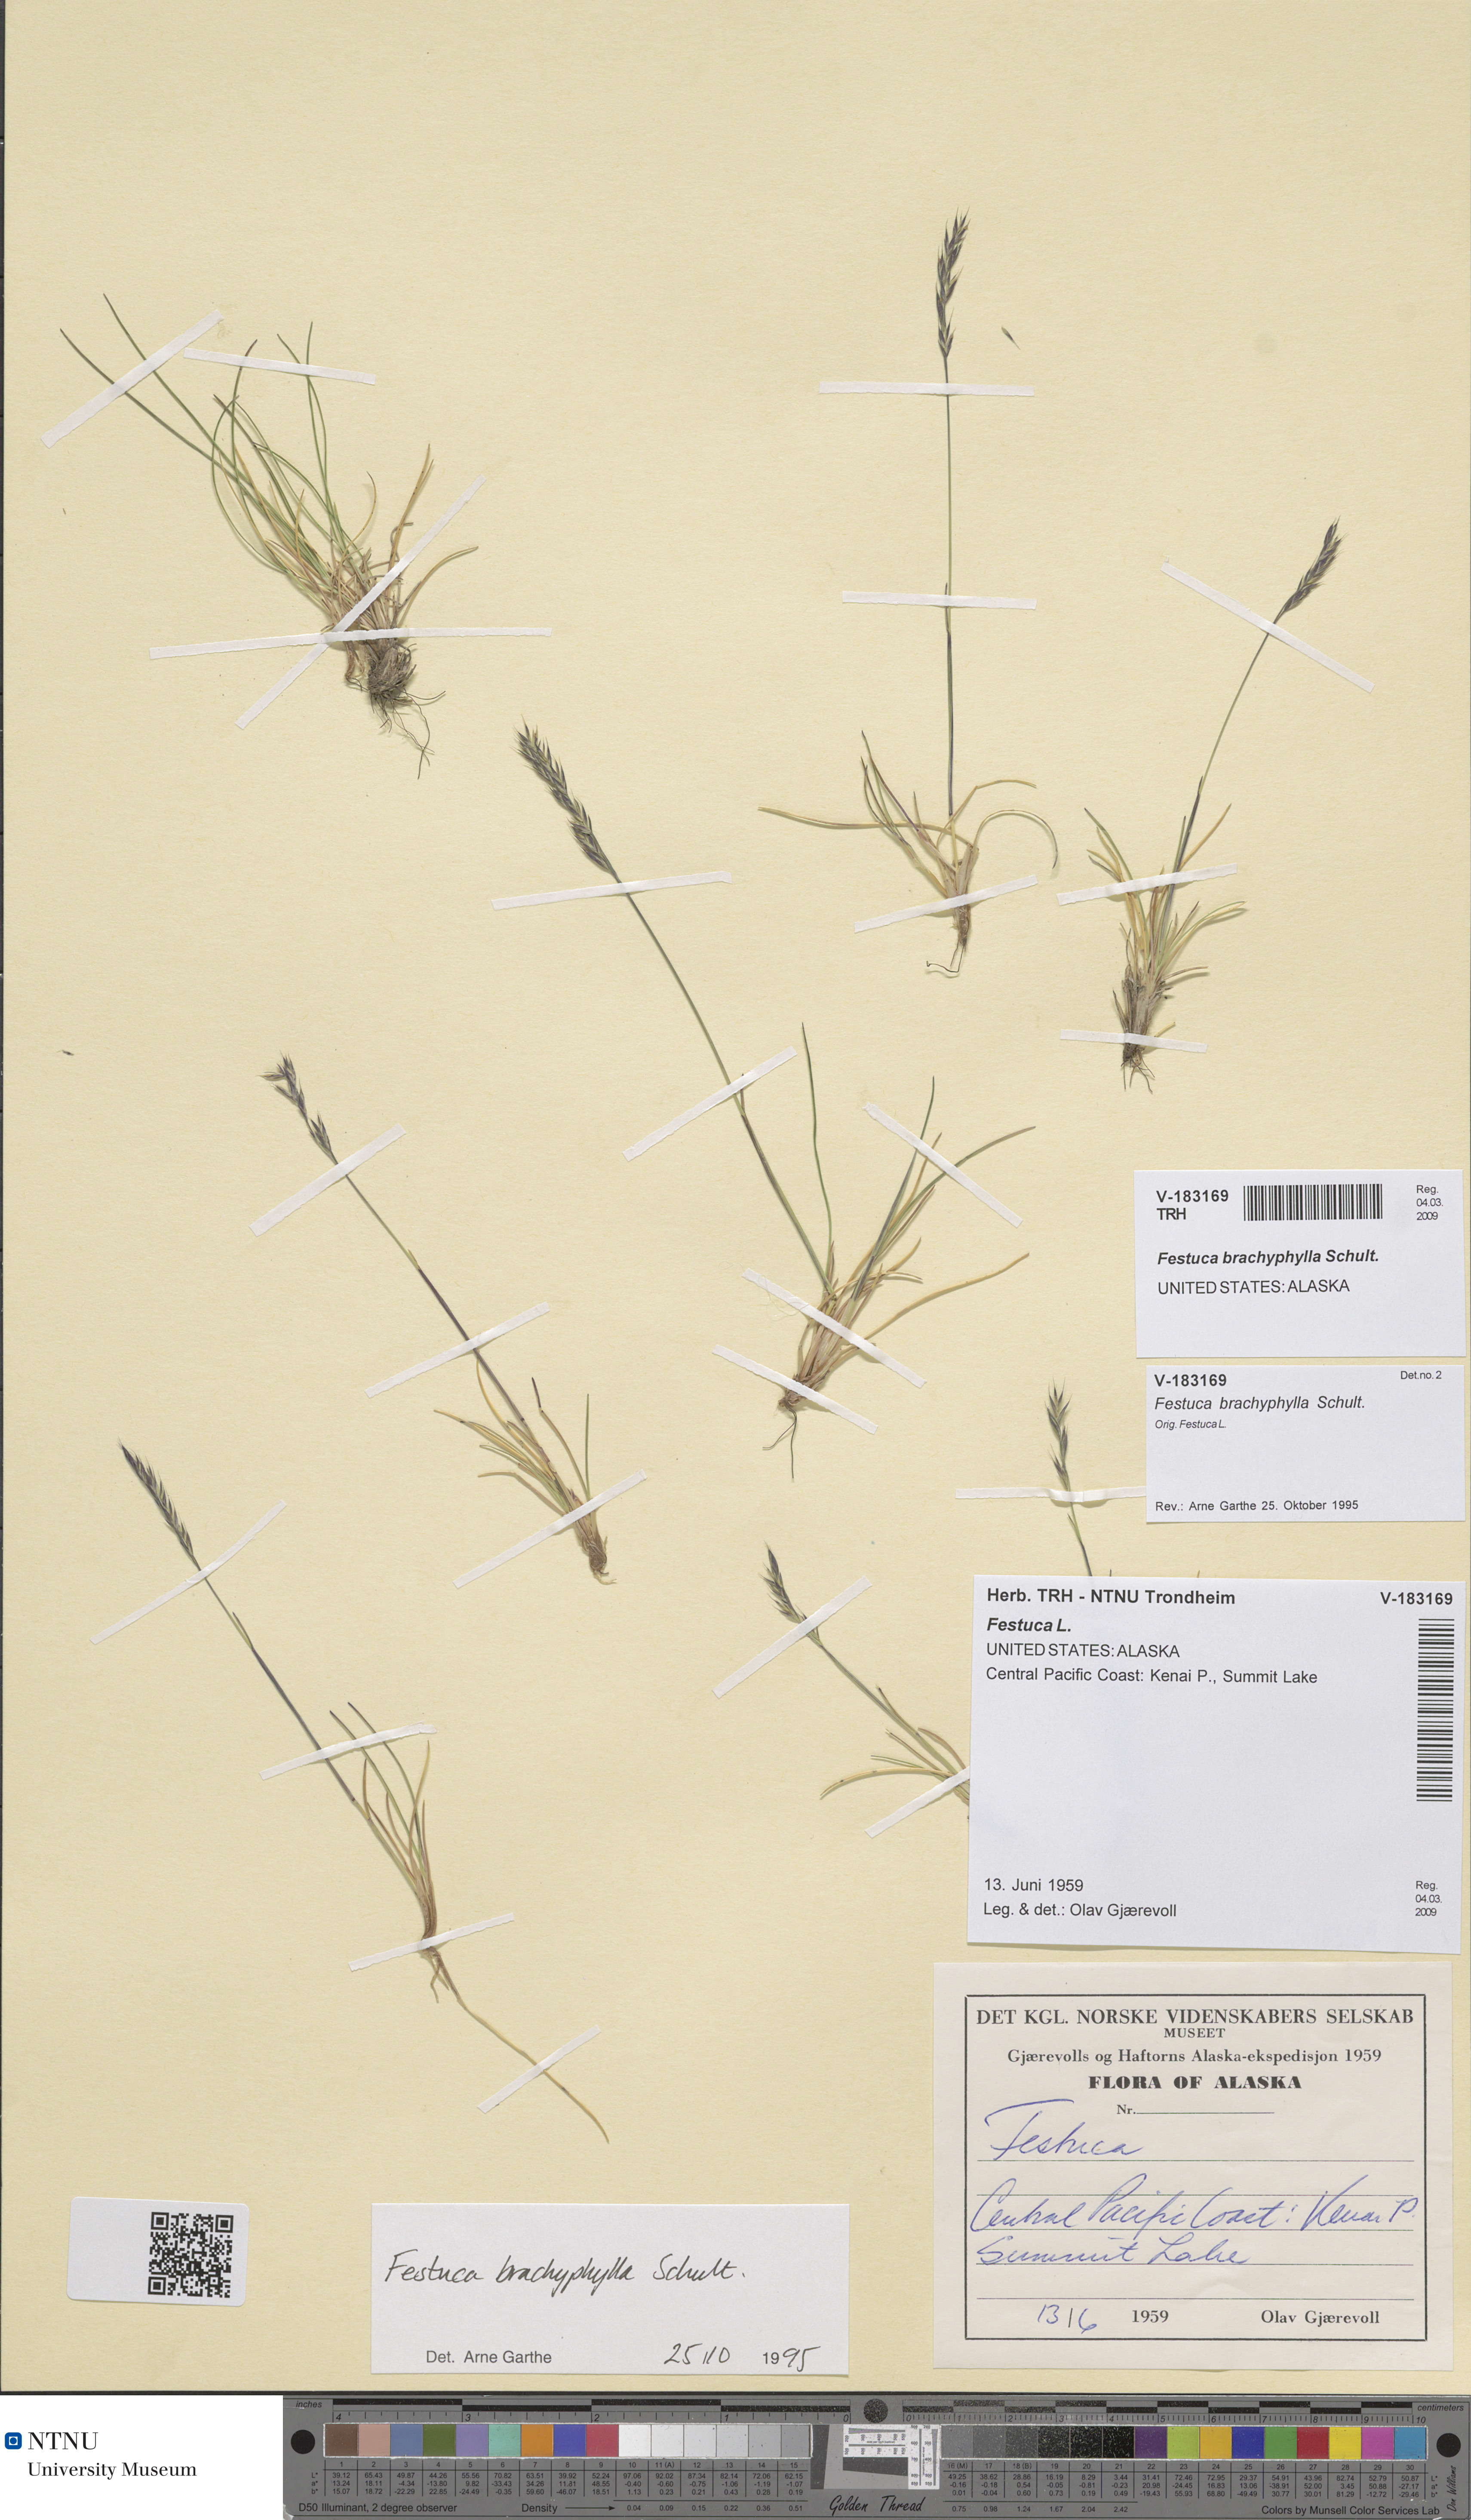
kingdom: Plantae
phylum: Tracheophyta
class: Liliopsida
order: Poales
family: Poaceae
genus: Festuca
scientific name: Festuca brachyphylla
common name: Alpine fescue
